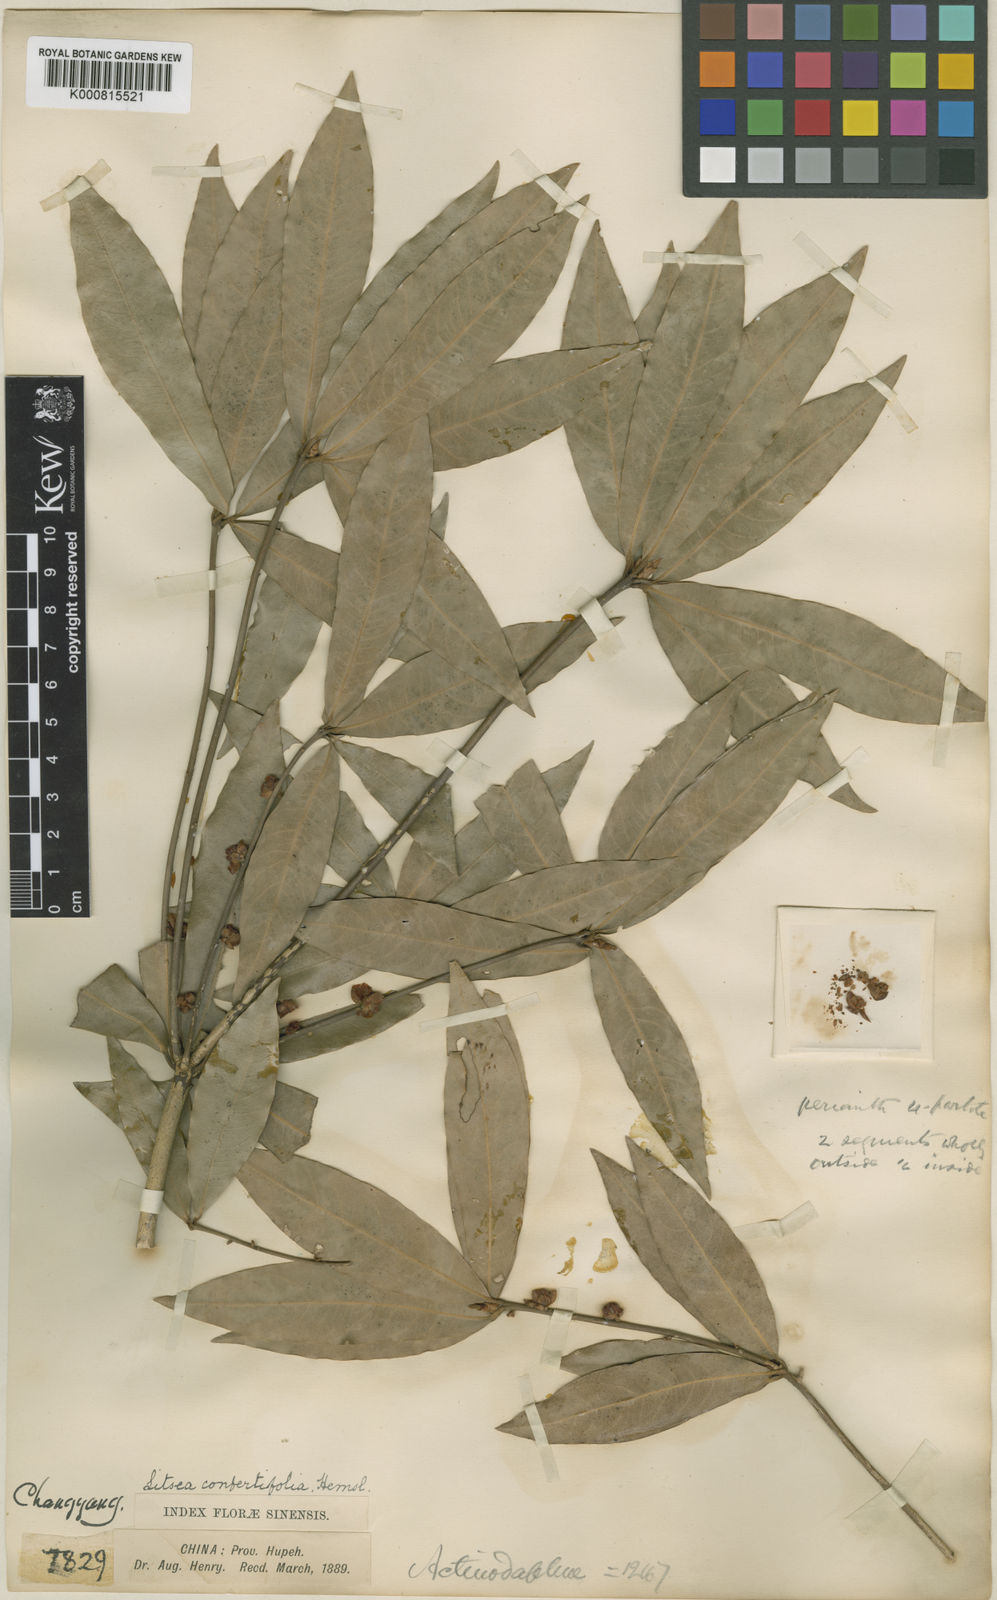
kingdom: Plantae
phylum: Tracheophyta
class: Magnoliopsida
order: Laurales
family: Lauraceae
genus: Neolitsea
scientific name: Neolitsea confertifolia
